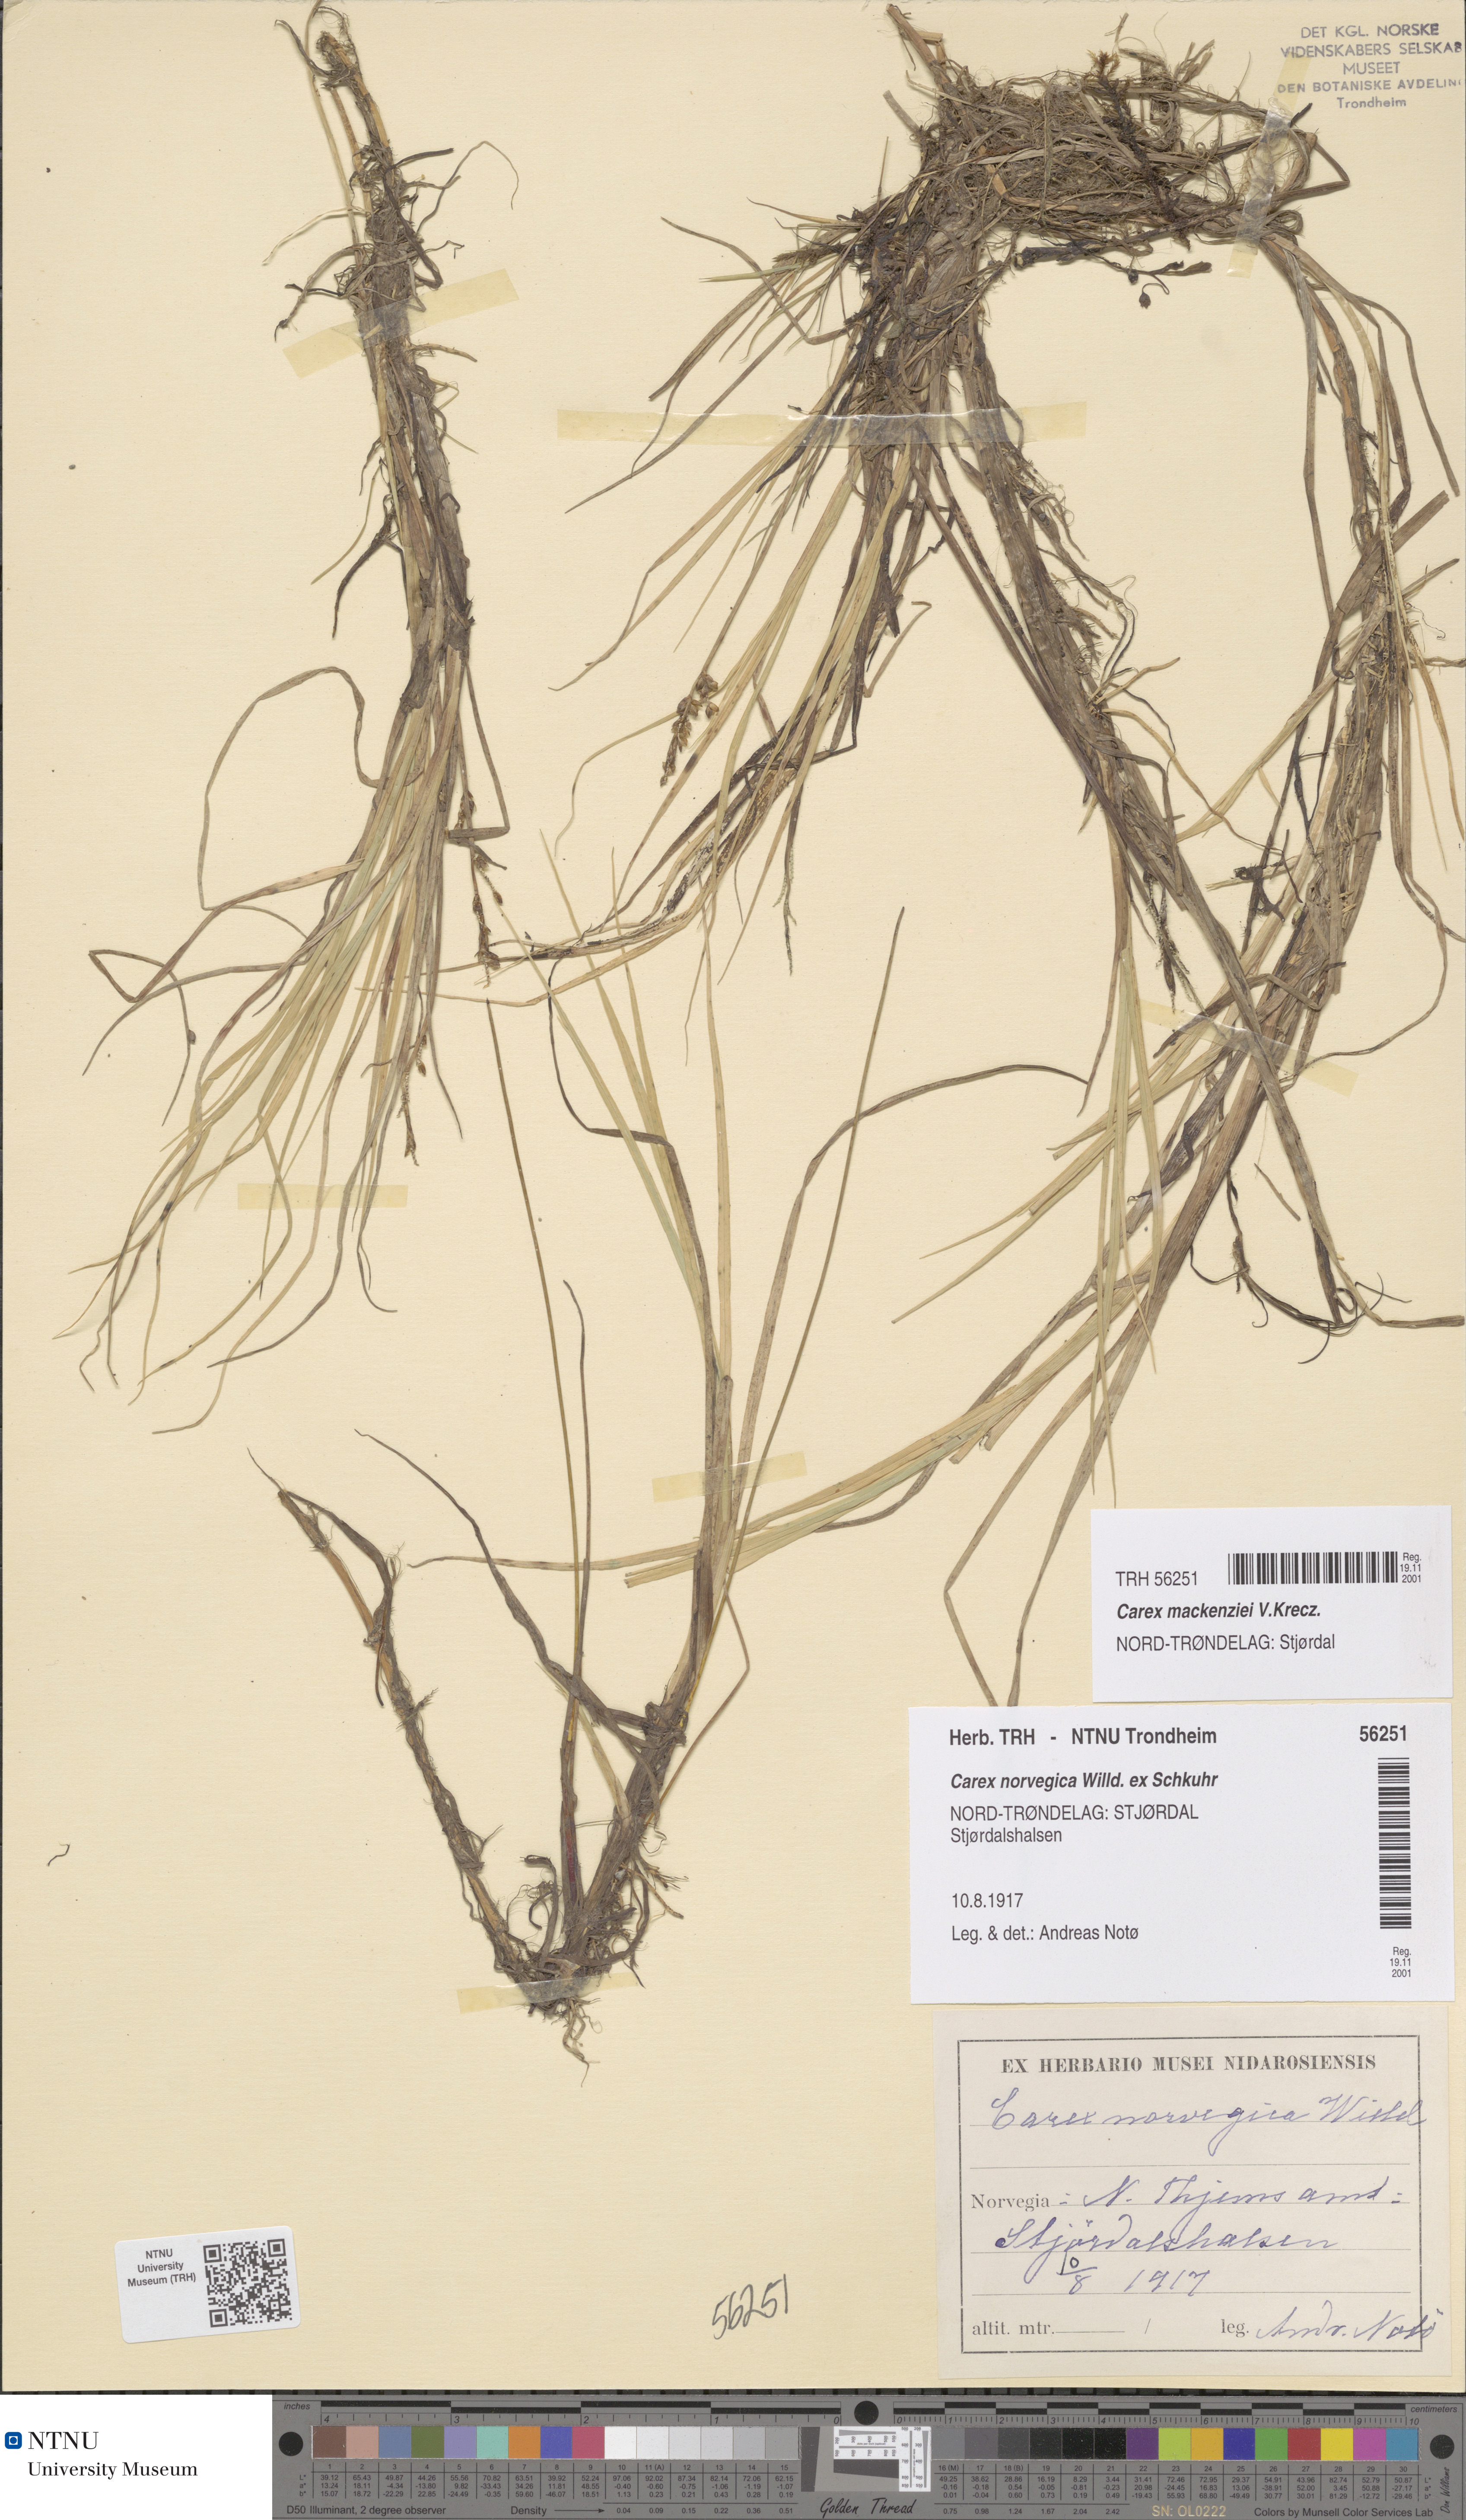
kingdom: Plantae
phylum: Tracheophyta
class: Liliopsida
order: Poales
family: Cyperaceae
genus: Carex
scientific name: Carex mackenziei
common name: Mackenzie's sedge
